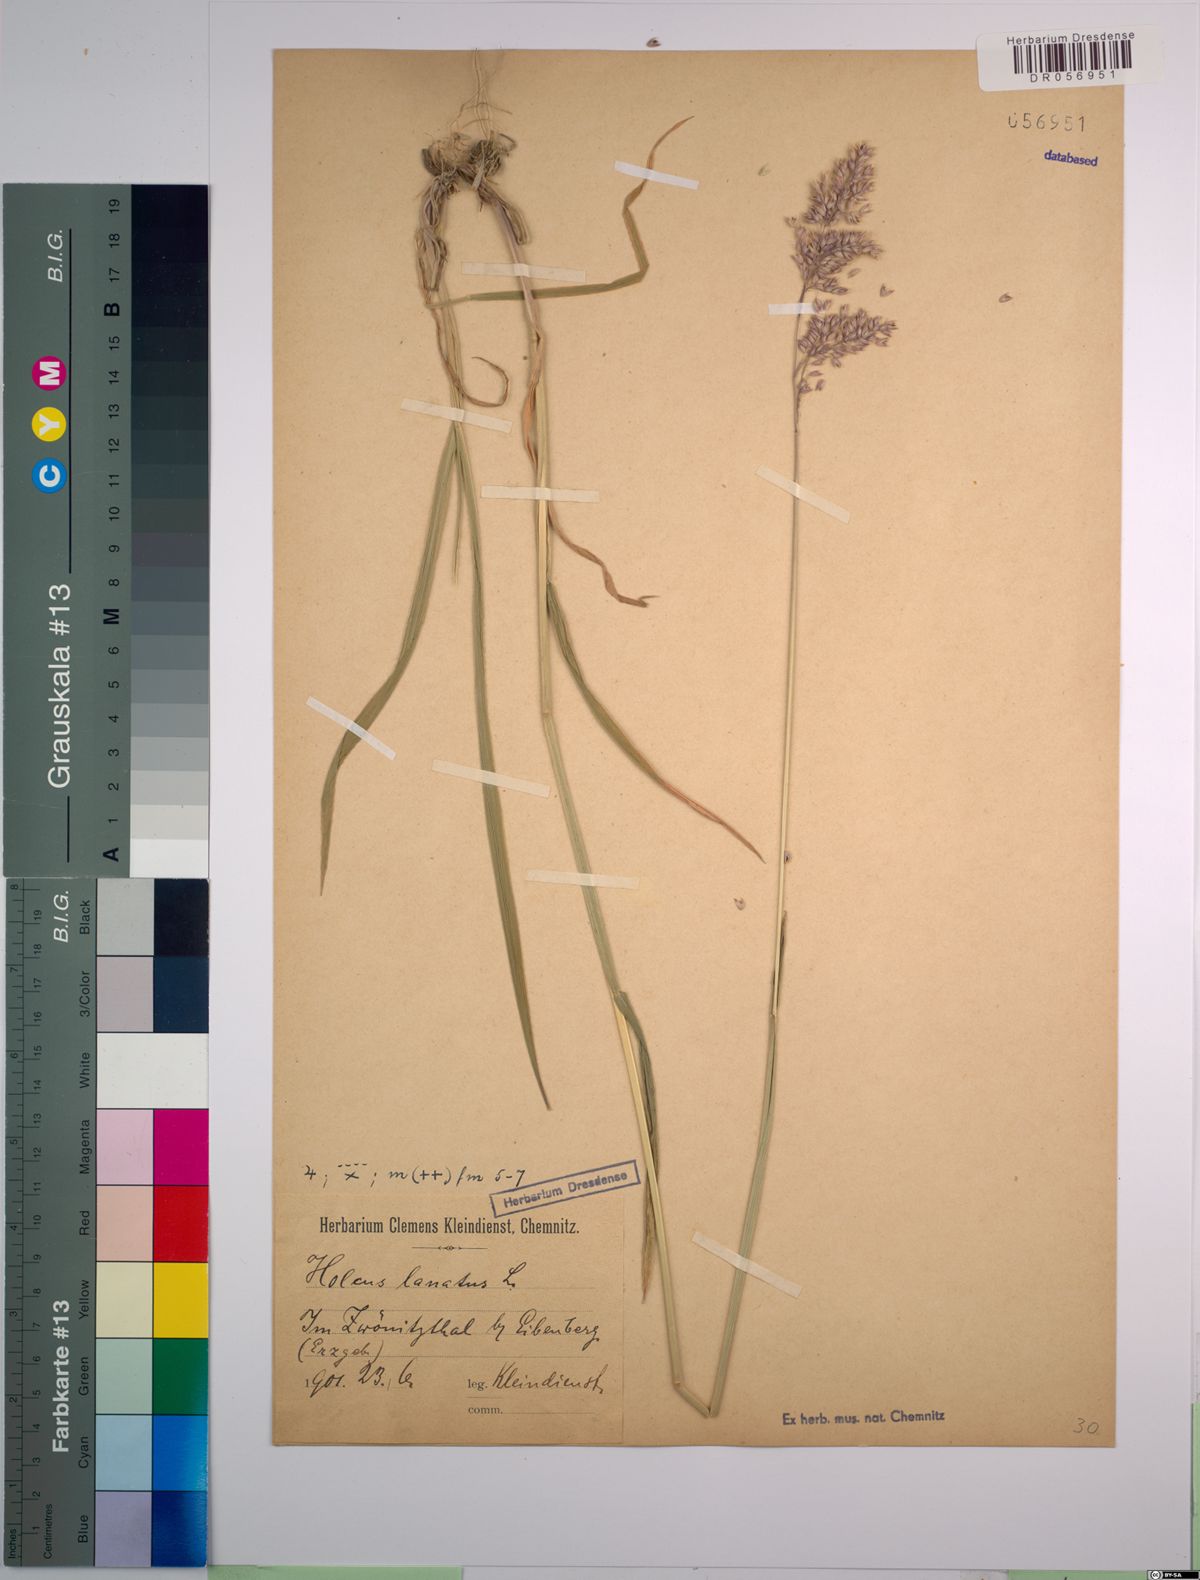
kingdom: Plantae
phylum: Tracheophyta
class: Liliopsida
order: Poales
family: Poaceae
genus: Holcus
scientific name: Holcus lanatus
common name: Yorkshire-fog
